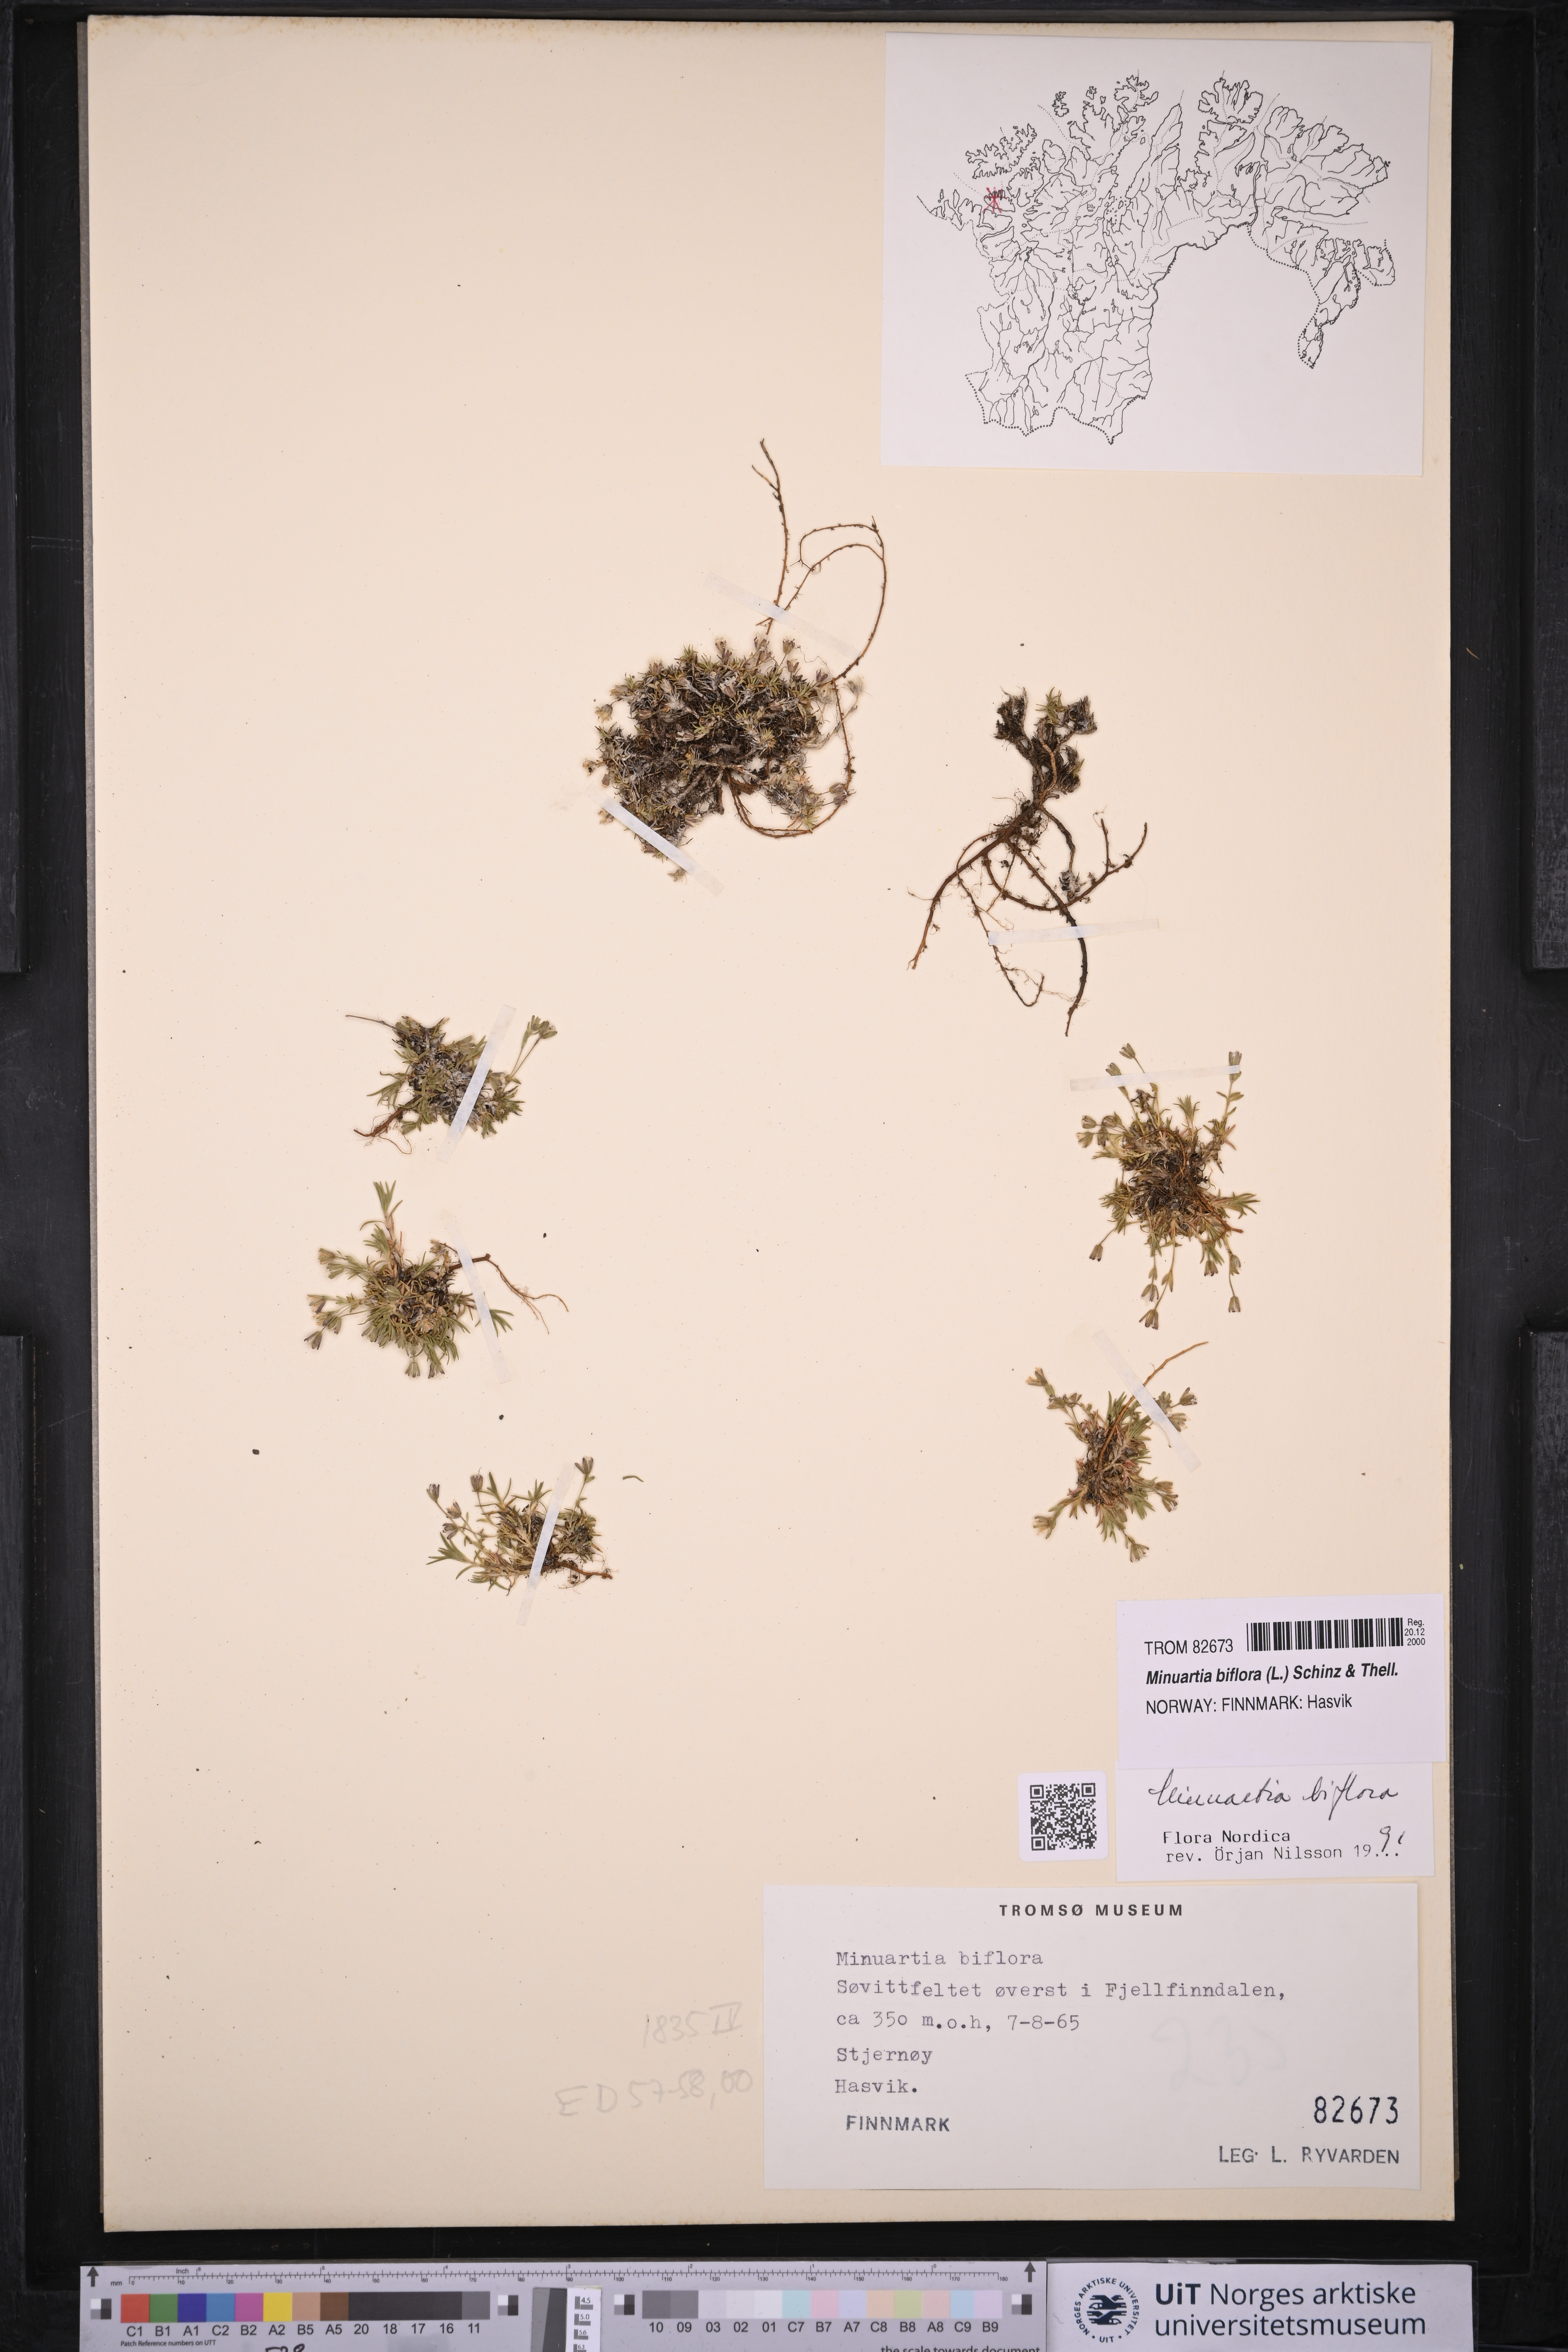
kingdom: Plantae
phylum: Tracheophyta
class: Magnoliopsida
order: Caryophyllales
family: Caryophyllaceae
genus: Cherleria
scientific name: Cherleria biflora
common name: Mountain sandwort
